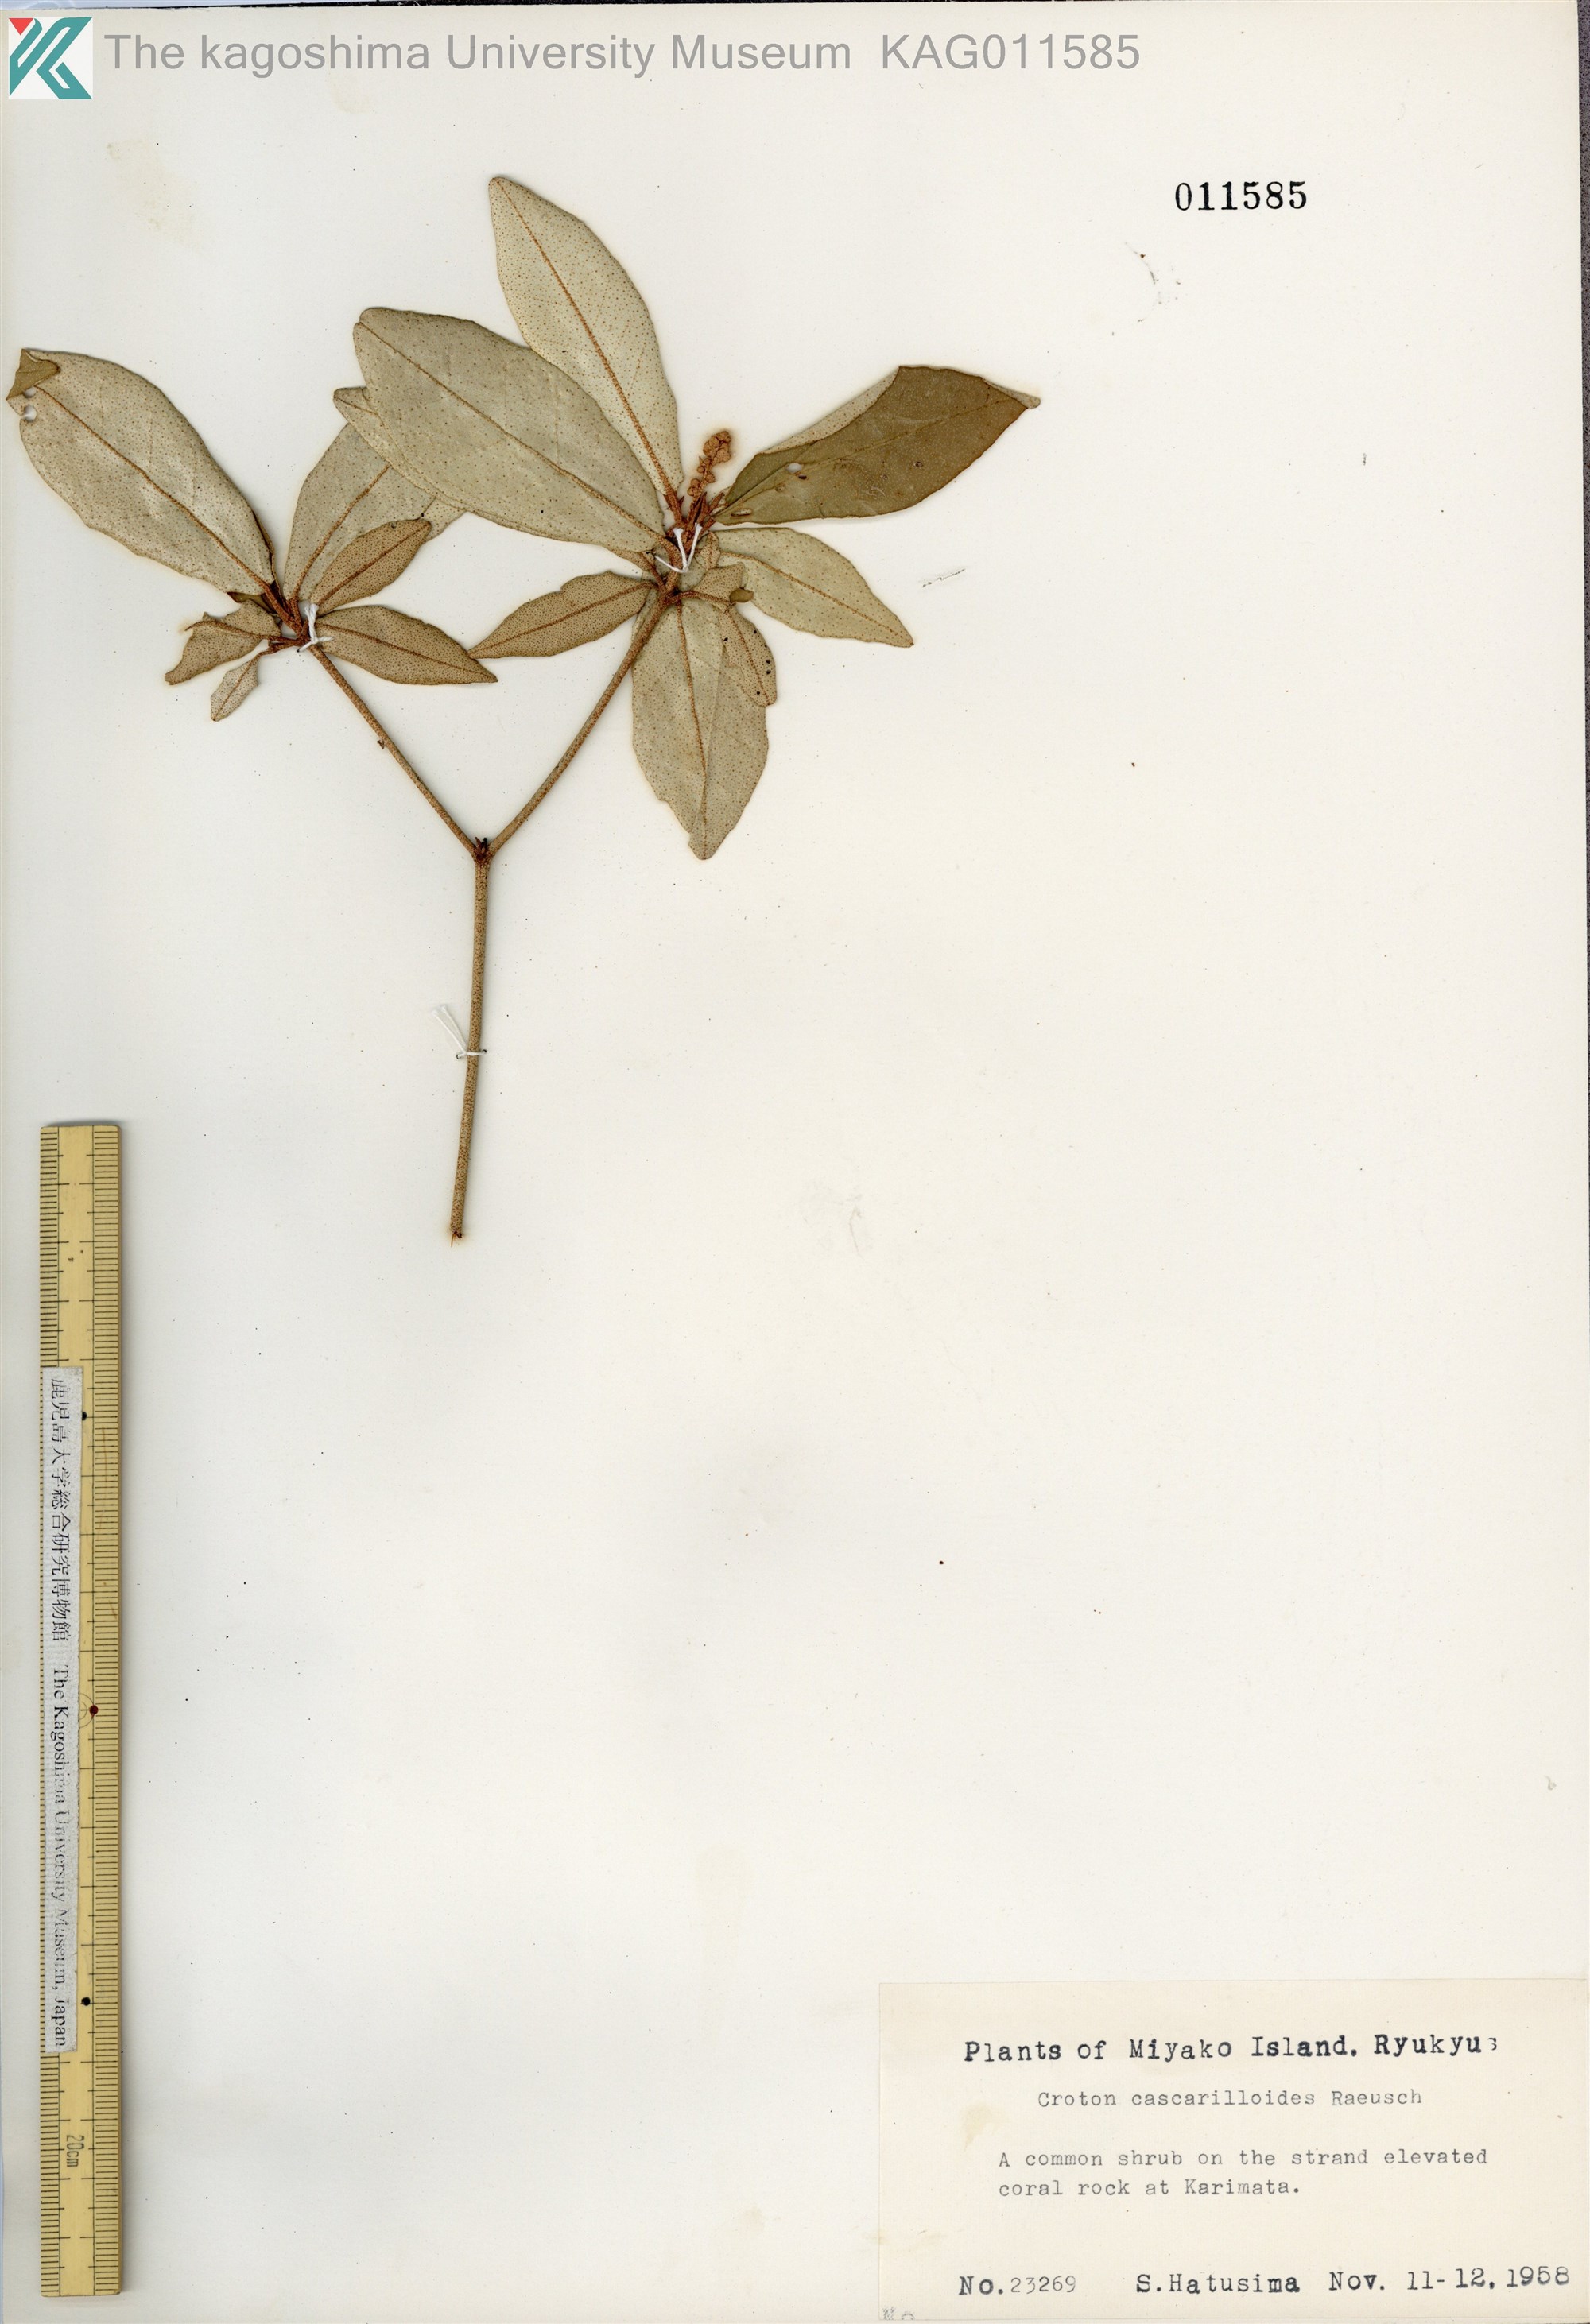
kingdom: Plantae
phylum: Tracheophyta
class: Magnoliopsida
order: Malpighiales
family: Euphorbiaceae
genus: Croton
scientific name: Croton cascarilloides
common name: グミモドキ
